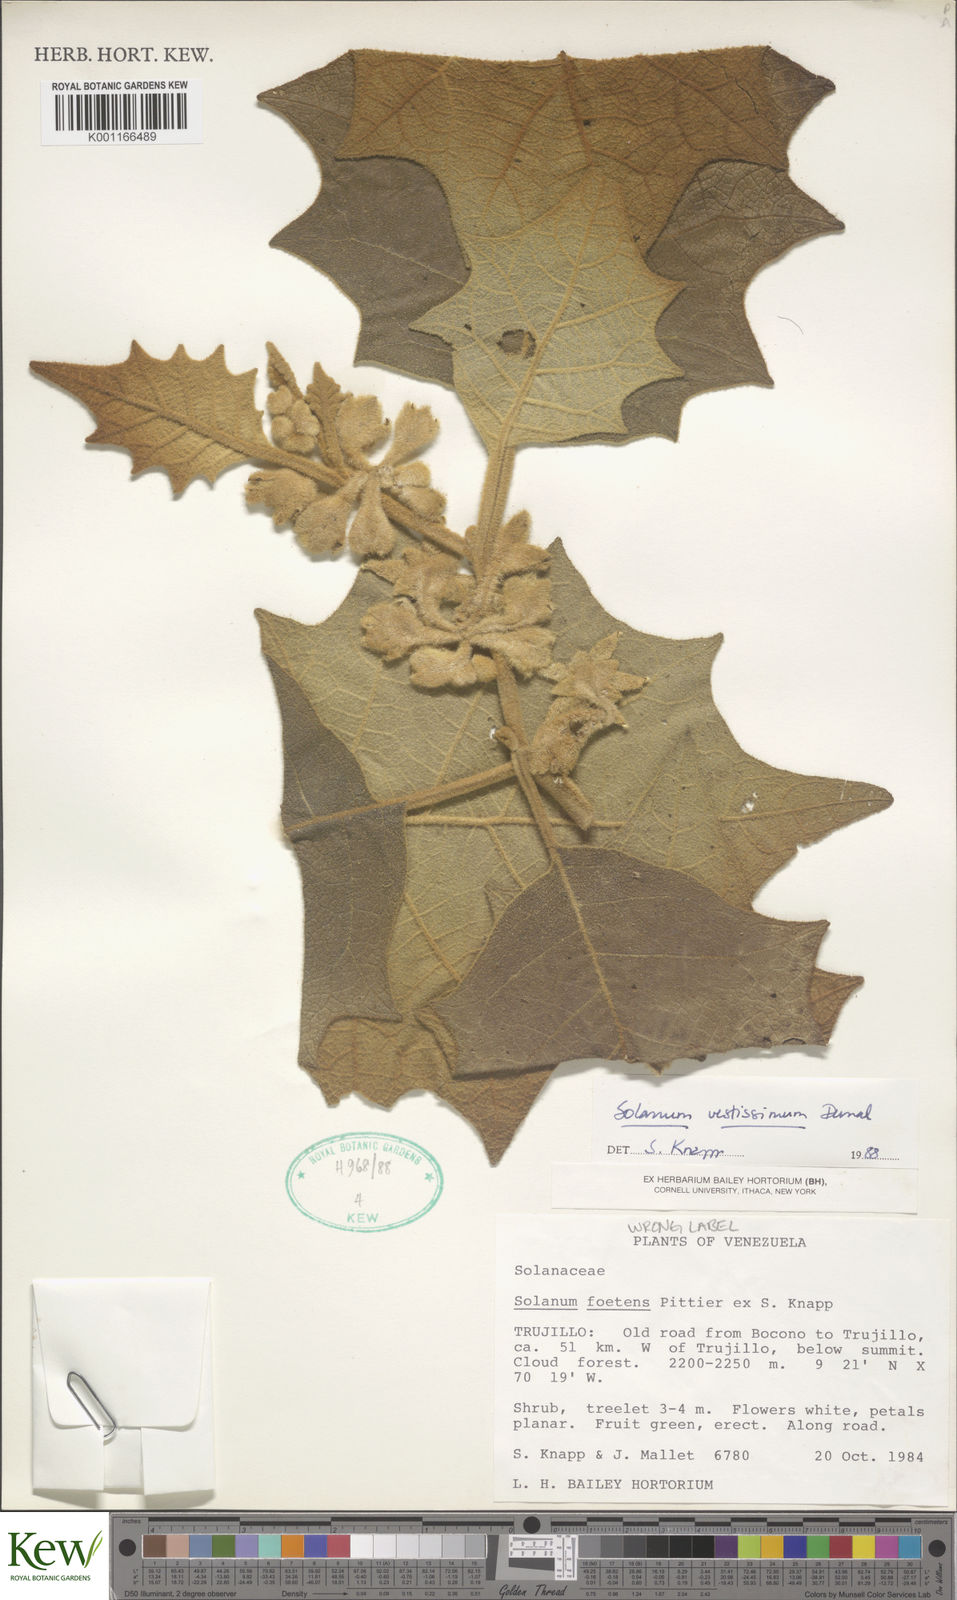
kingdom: Plantae
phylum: Tracheophyta
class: Magnoliopsida
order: Solanales
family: Solanaceae
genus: Solanum
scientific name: Solanum vestissimum
